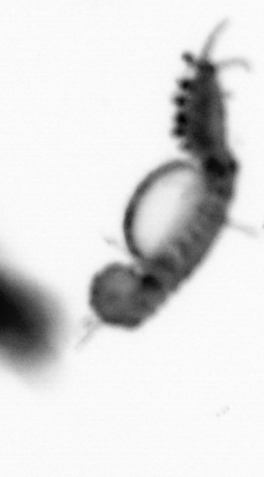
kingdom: Animalia
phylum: Annelida
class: Polychaeta
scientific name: Polychaeta
